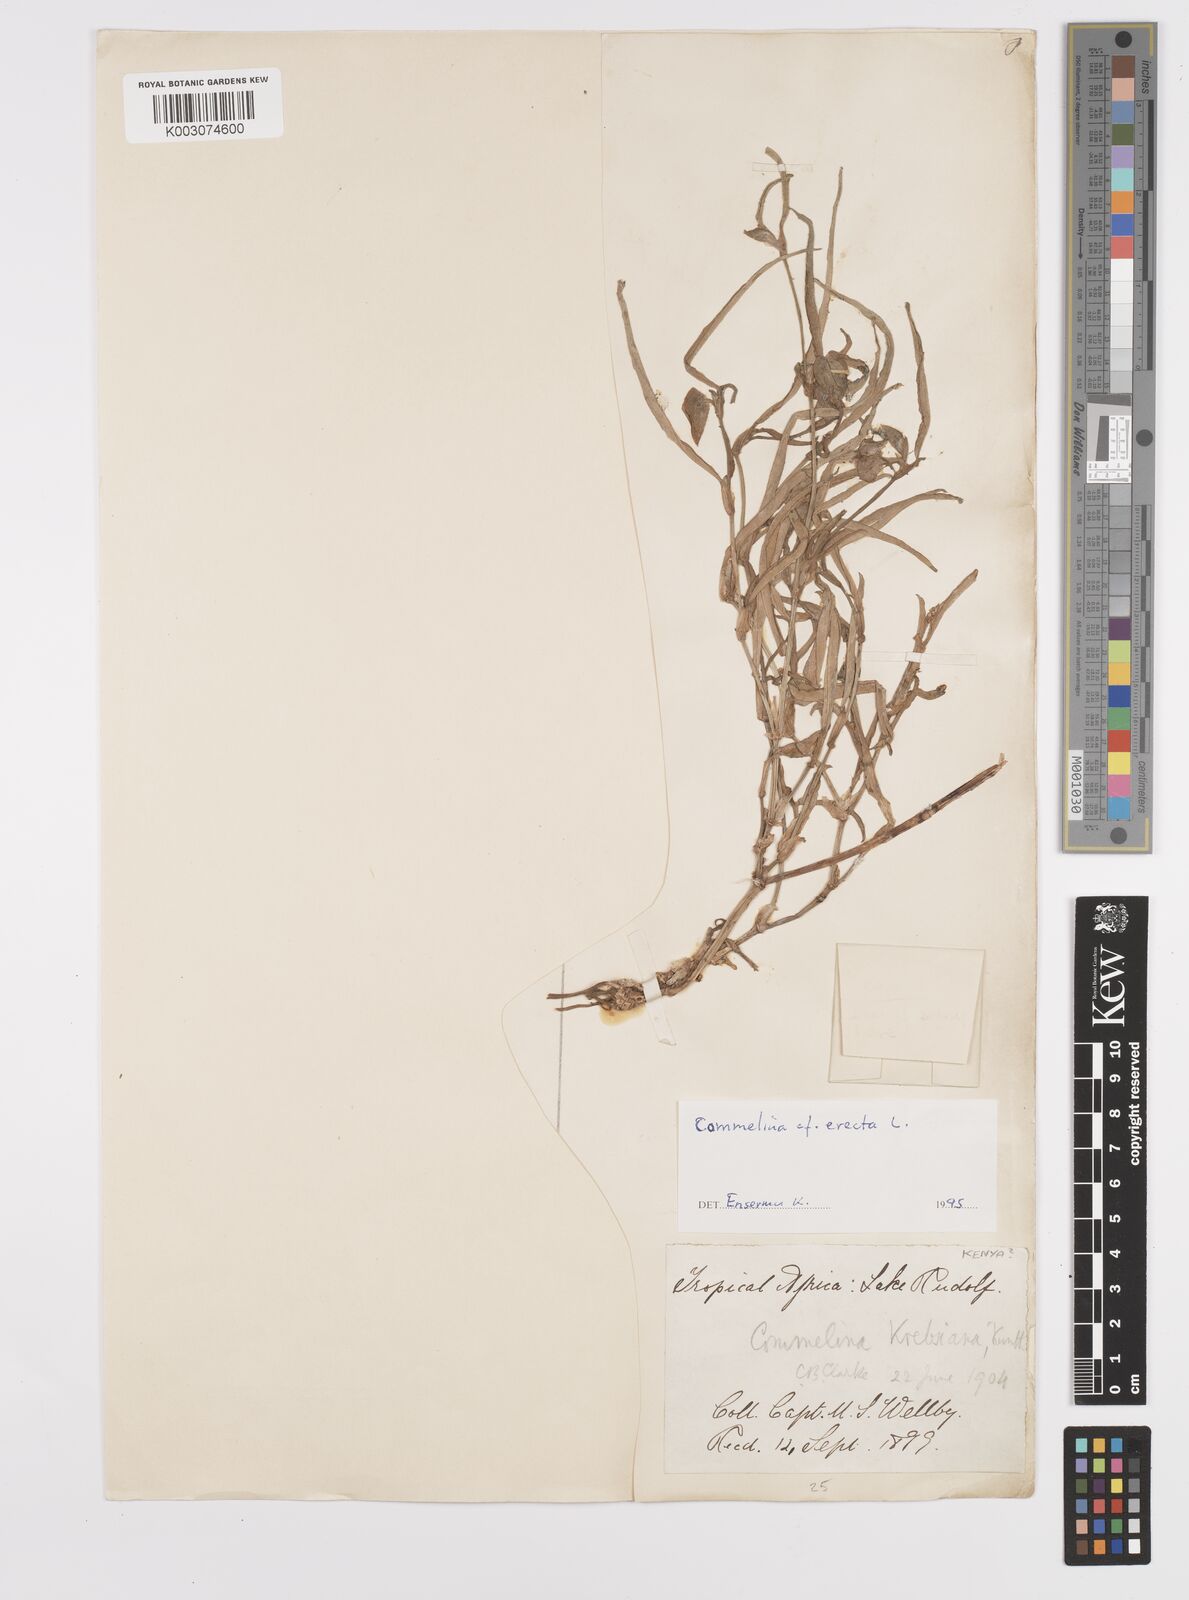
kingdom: Plantae
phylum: Tracheophyta
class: Liliopsida
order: Commelinales
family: Commelinaceae
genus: Commelina
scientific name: Commelina erecta
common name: Blousel blommetjie
